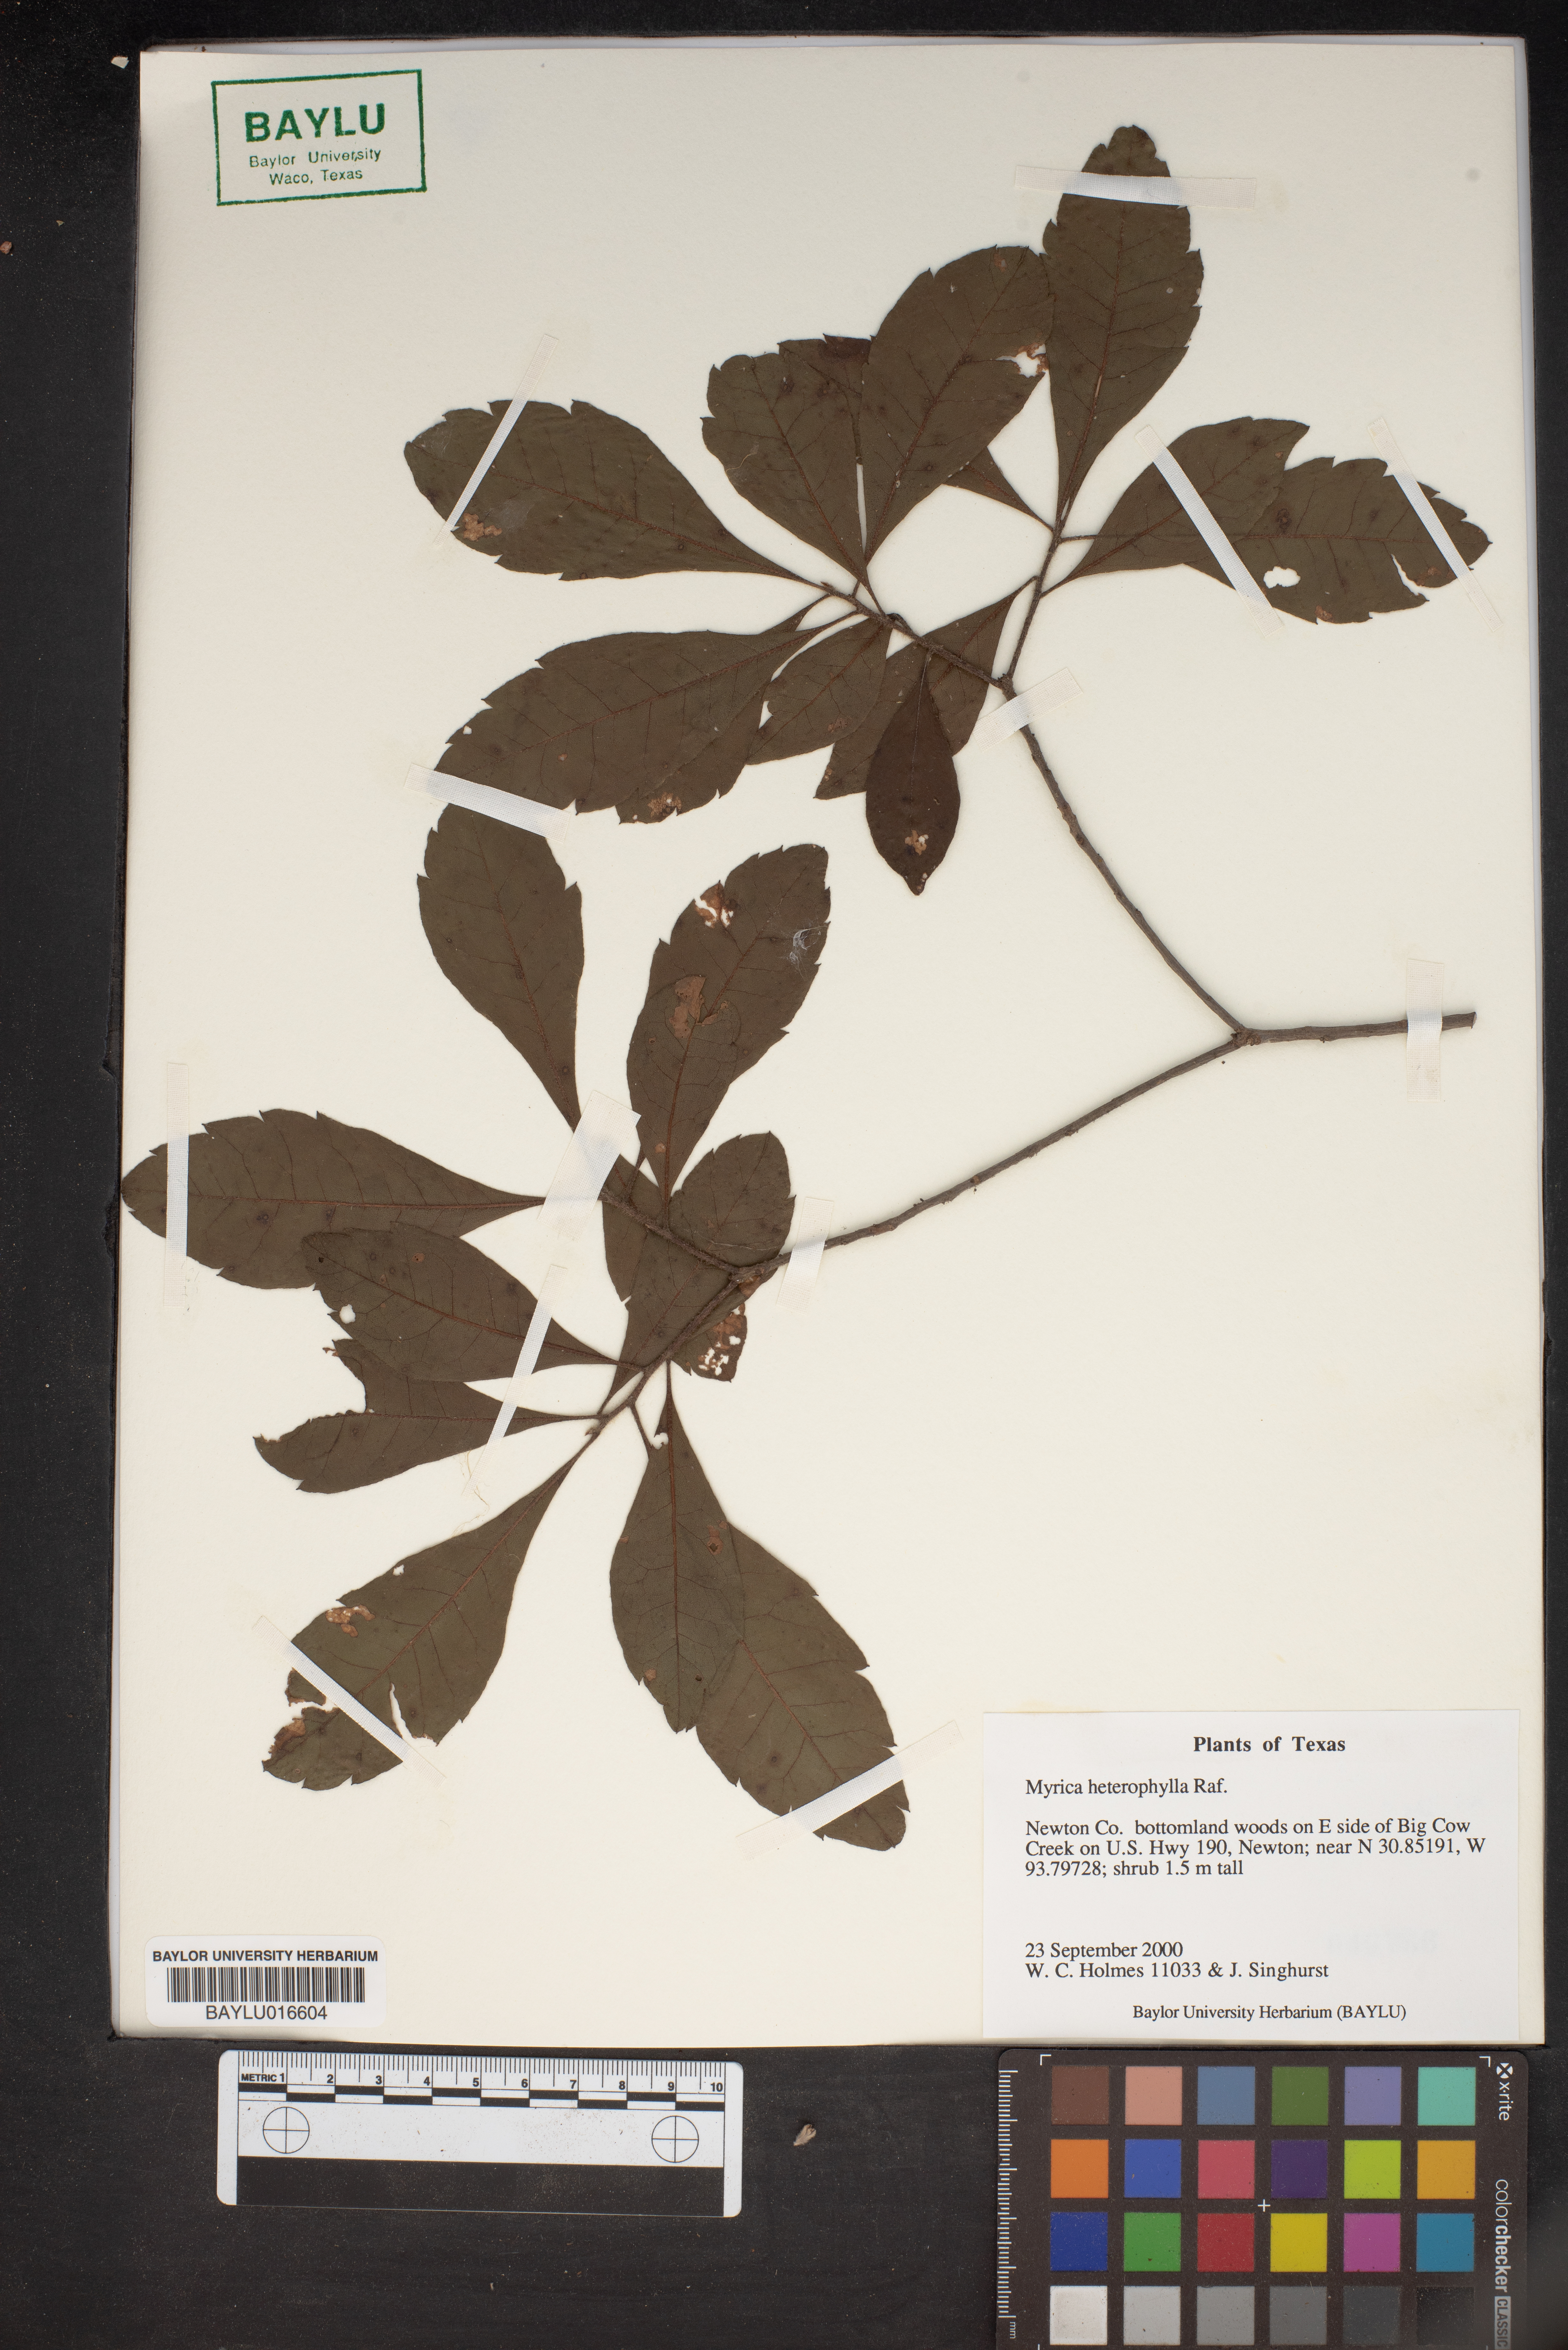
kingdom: Plantae
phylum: Tracheophyta
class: Magnoliopsida
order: Fagales
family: Myricaceae
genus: Morella
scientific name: Morella caroliniensis
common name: Evergreen bayberry
